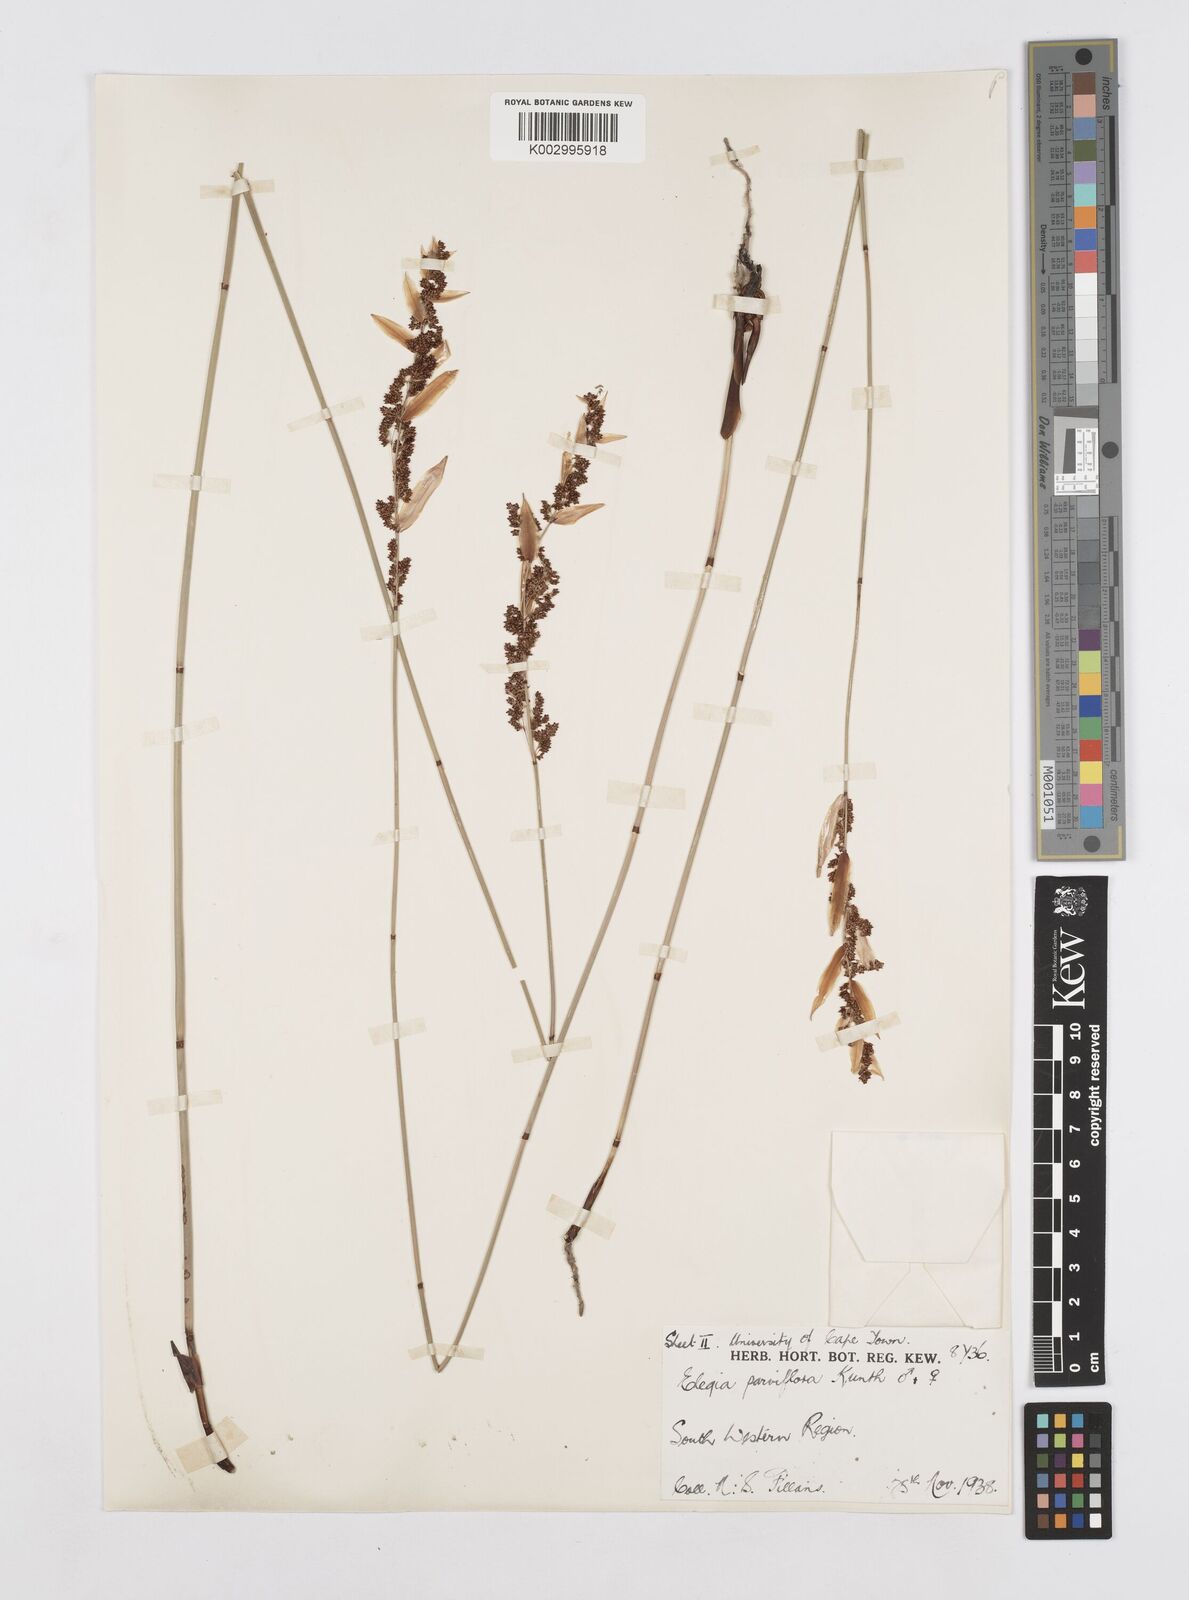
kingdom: Plantae
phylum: Tracheophyta
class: Liliopsida
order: Poales
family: Restionaceae
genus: Cannomois
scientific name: Cannomois parviflora
